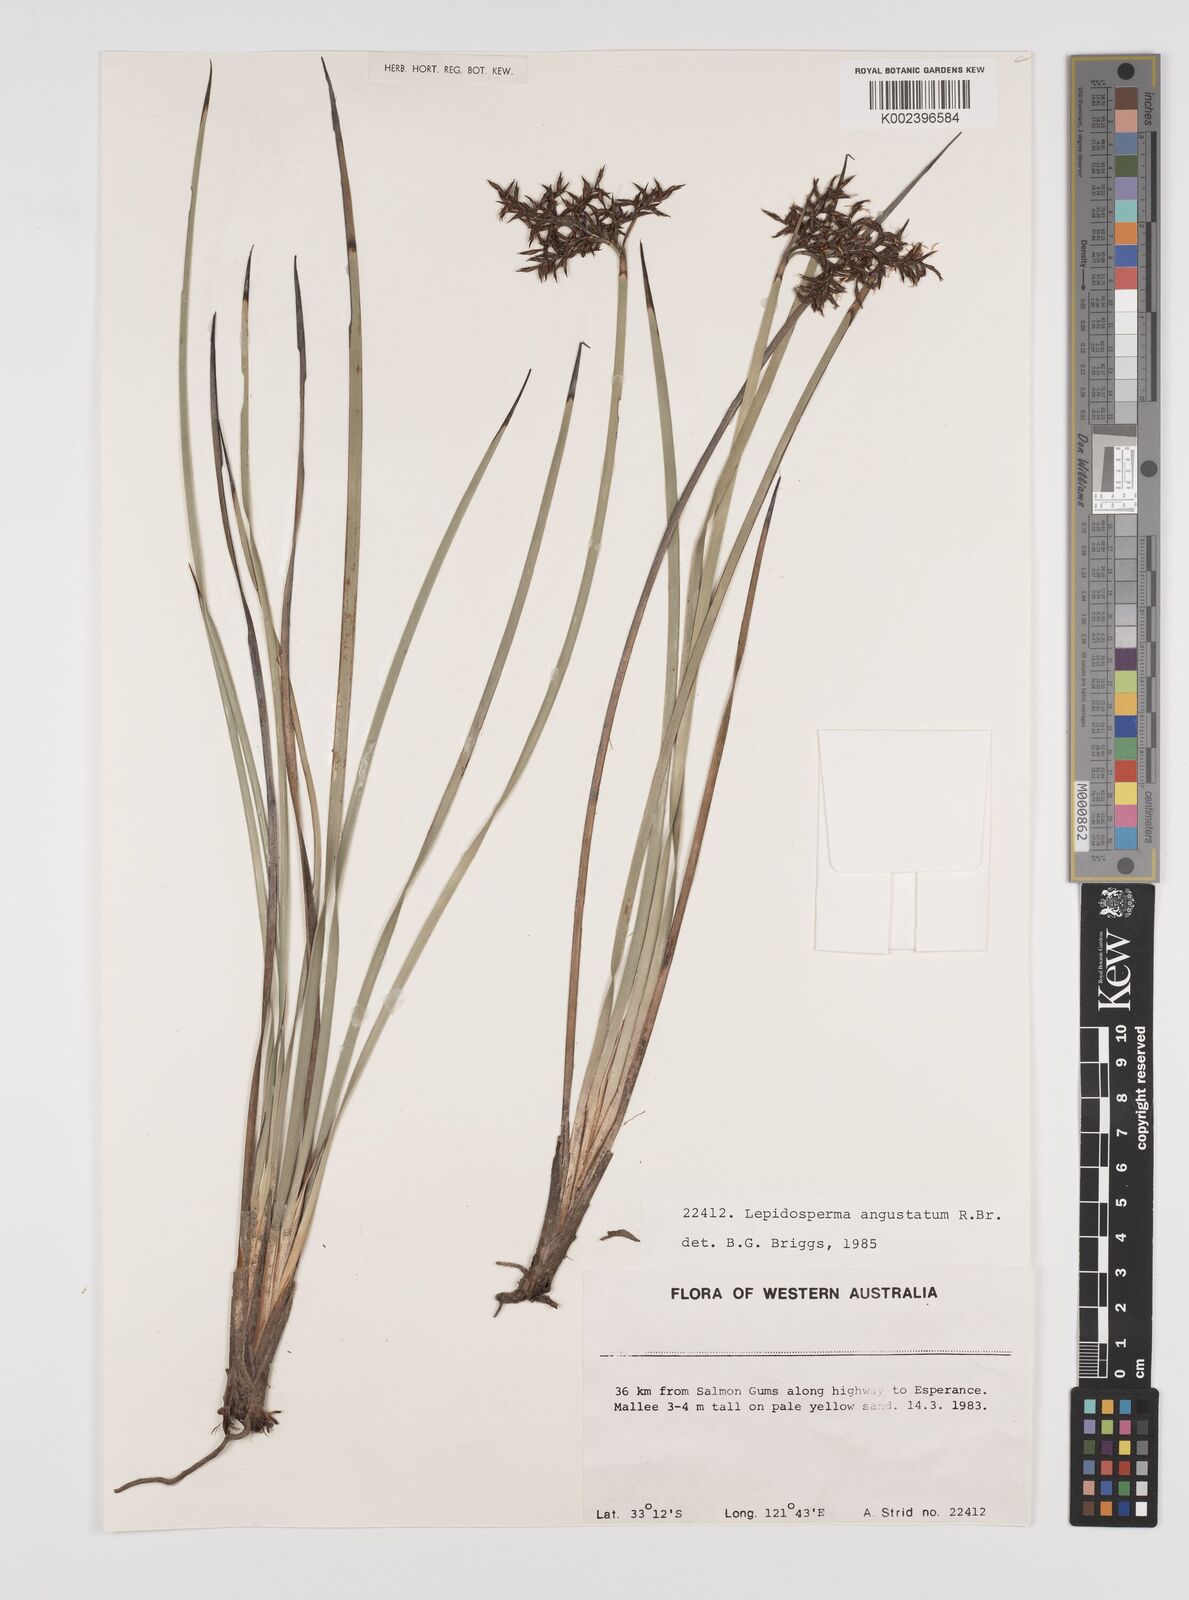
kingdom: Plantae
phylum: Tracheophyta
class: Liliopsida
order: Poales
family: Cyperaceae
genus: Lepidosperma
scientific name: Lepidosperma angustatum
